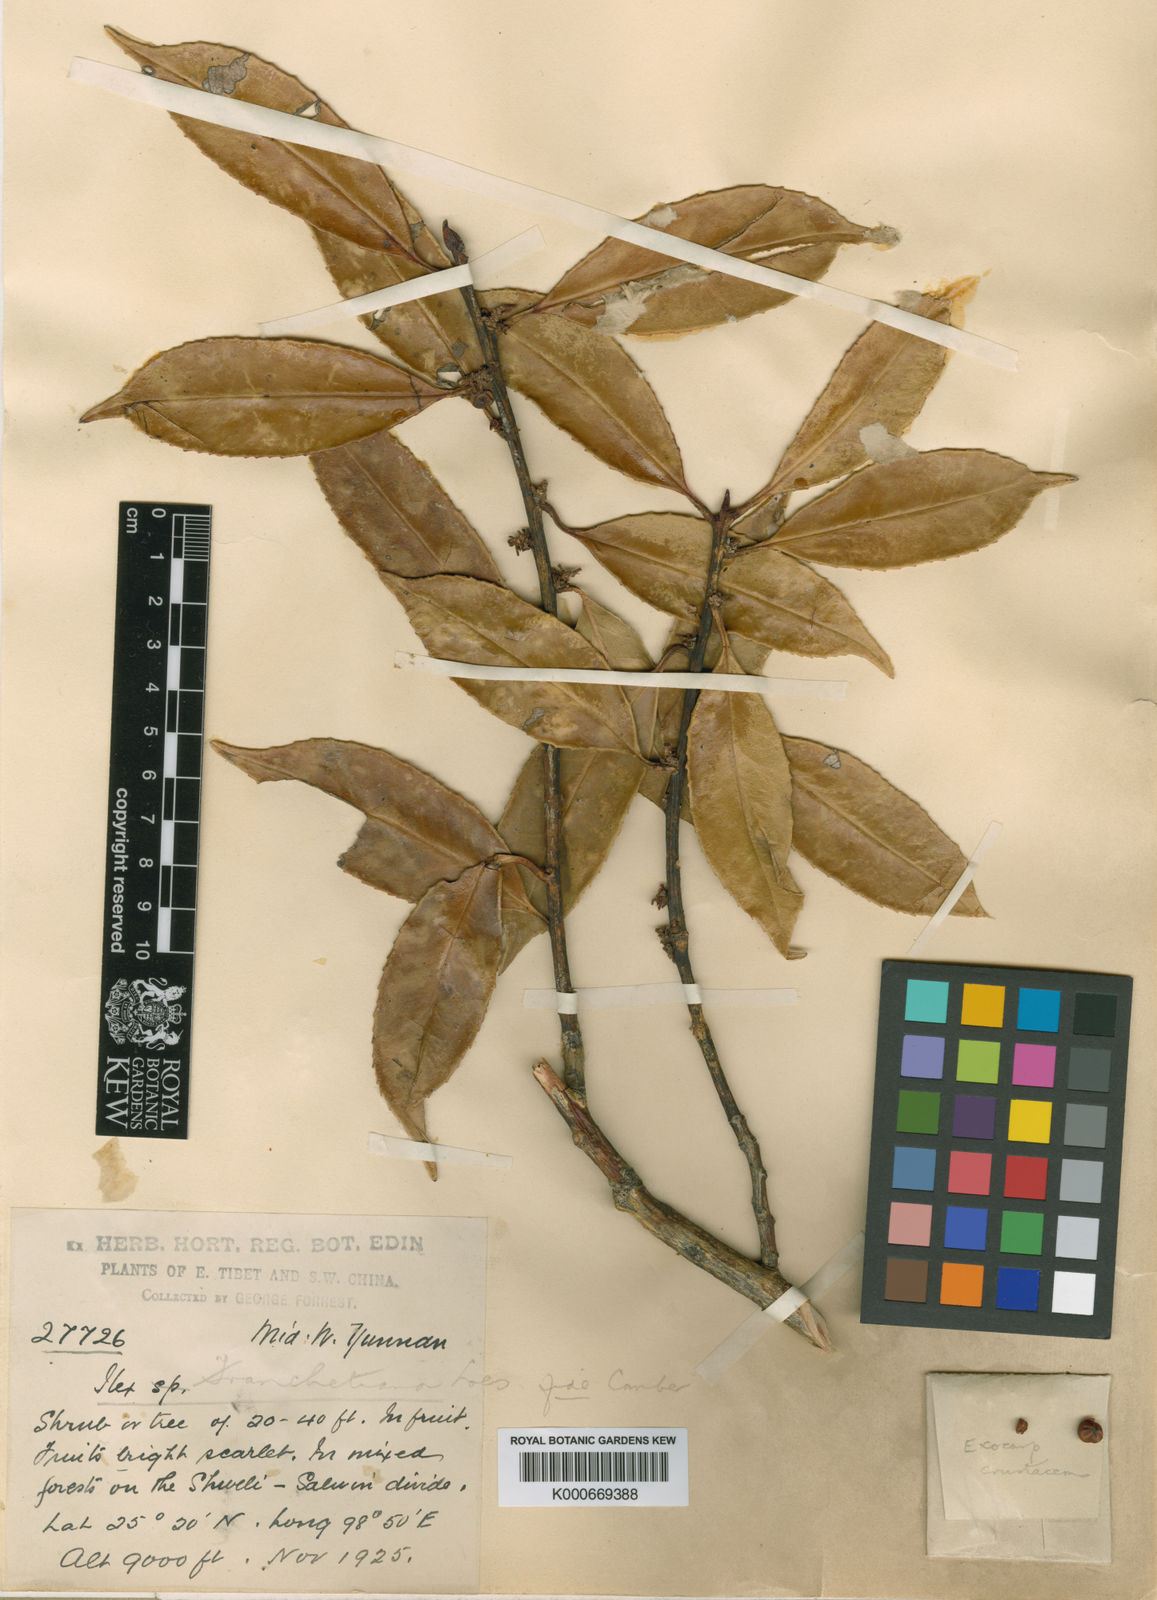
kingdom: Plantae
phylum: Tracheophyta
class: Magnoliopsida
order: Aquifoliales
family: Aquifoliaceae
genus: Ilex
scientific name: Ilex subodorata
